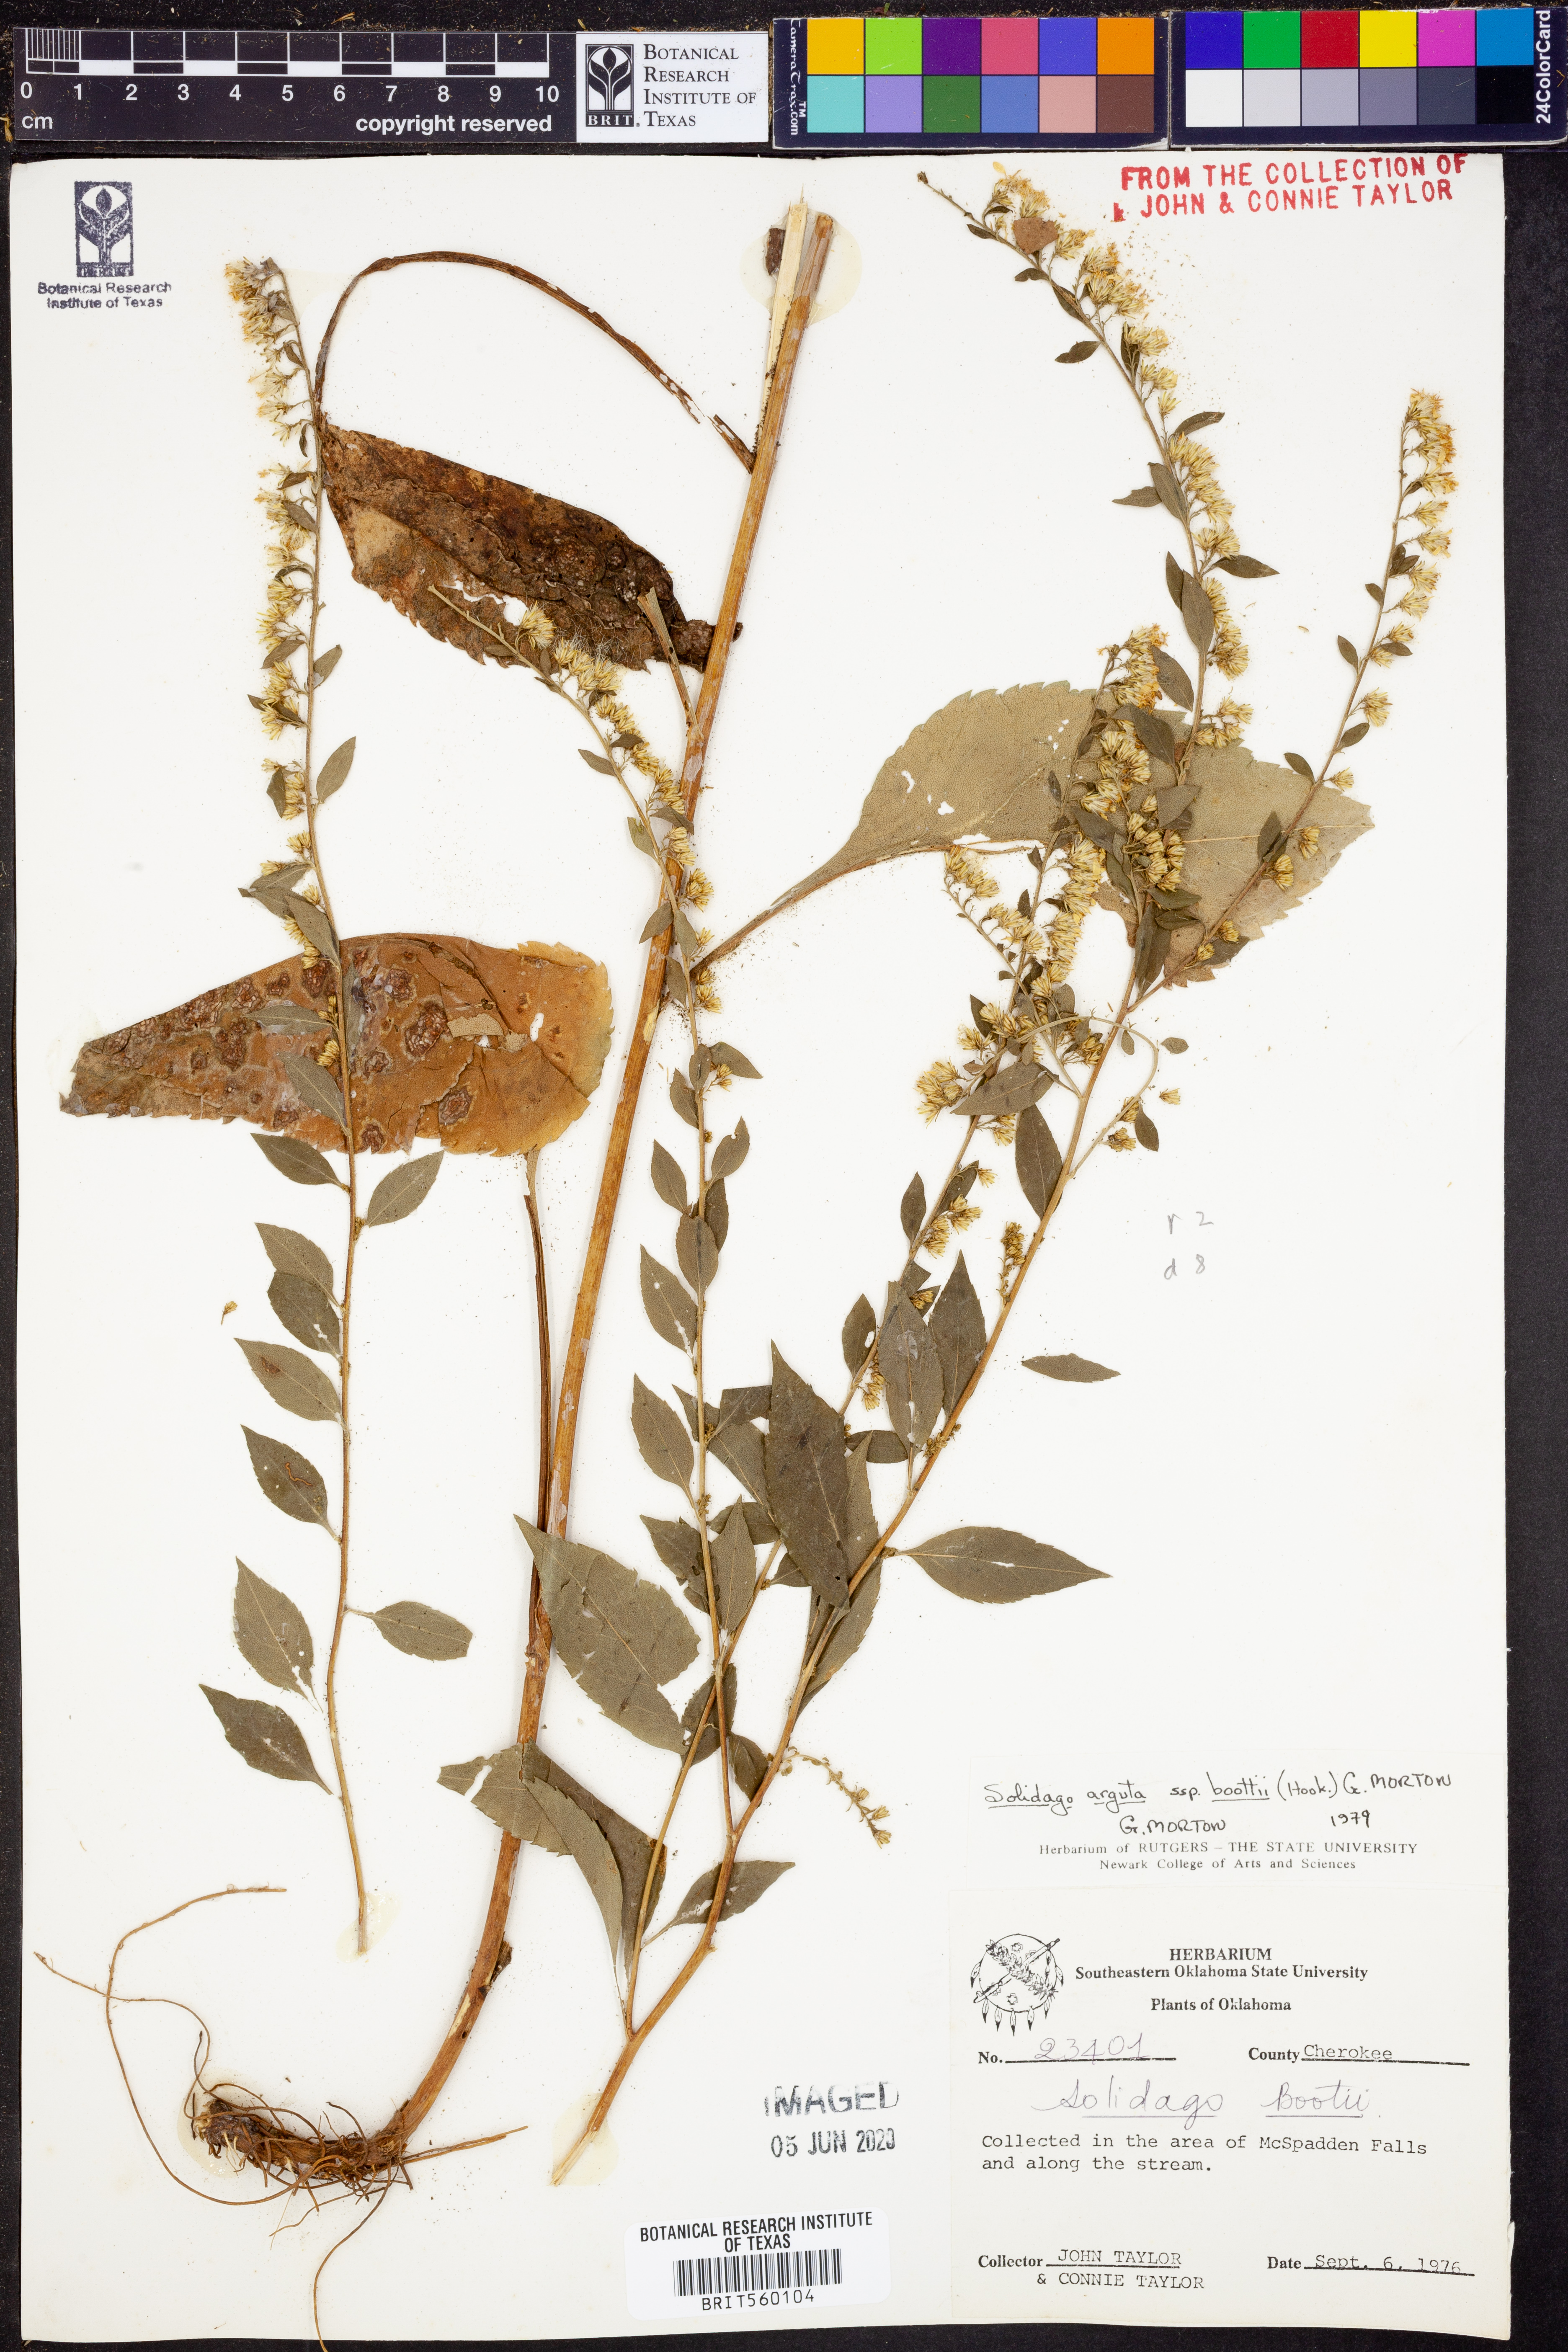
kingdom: Plantae
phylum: Tracheophyta
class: Magnoliopsida
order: Asterales
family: Asteraceae
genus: Solidago
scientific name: Solidago boottii
